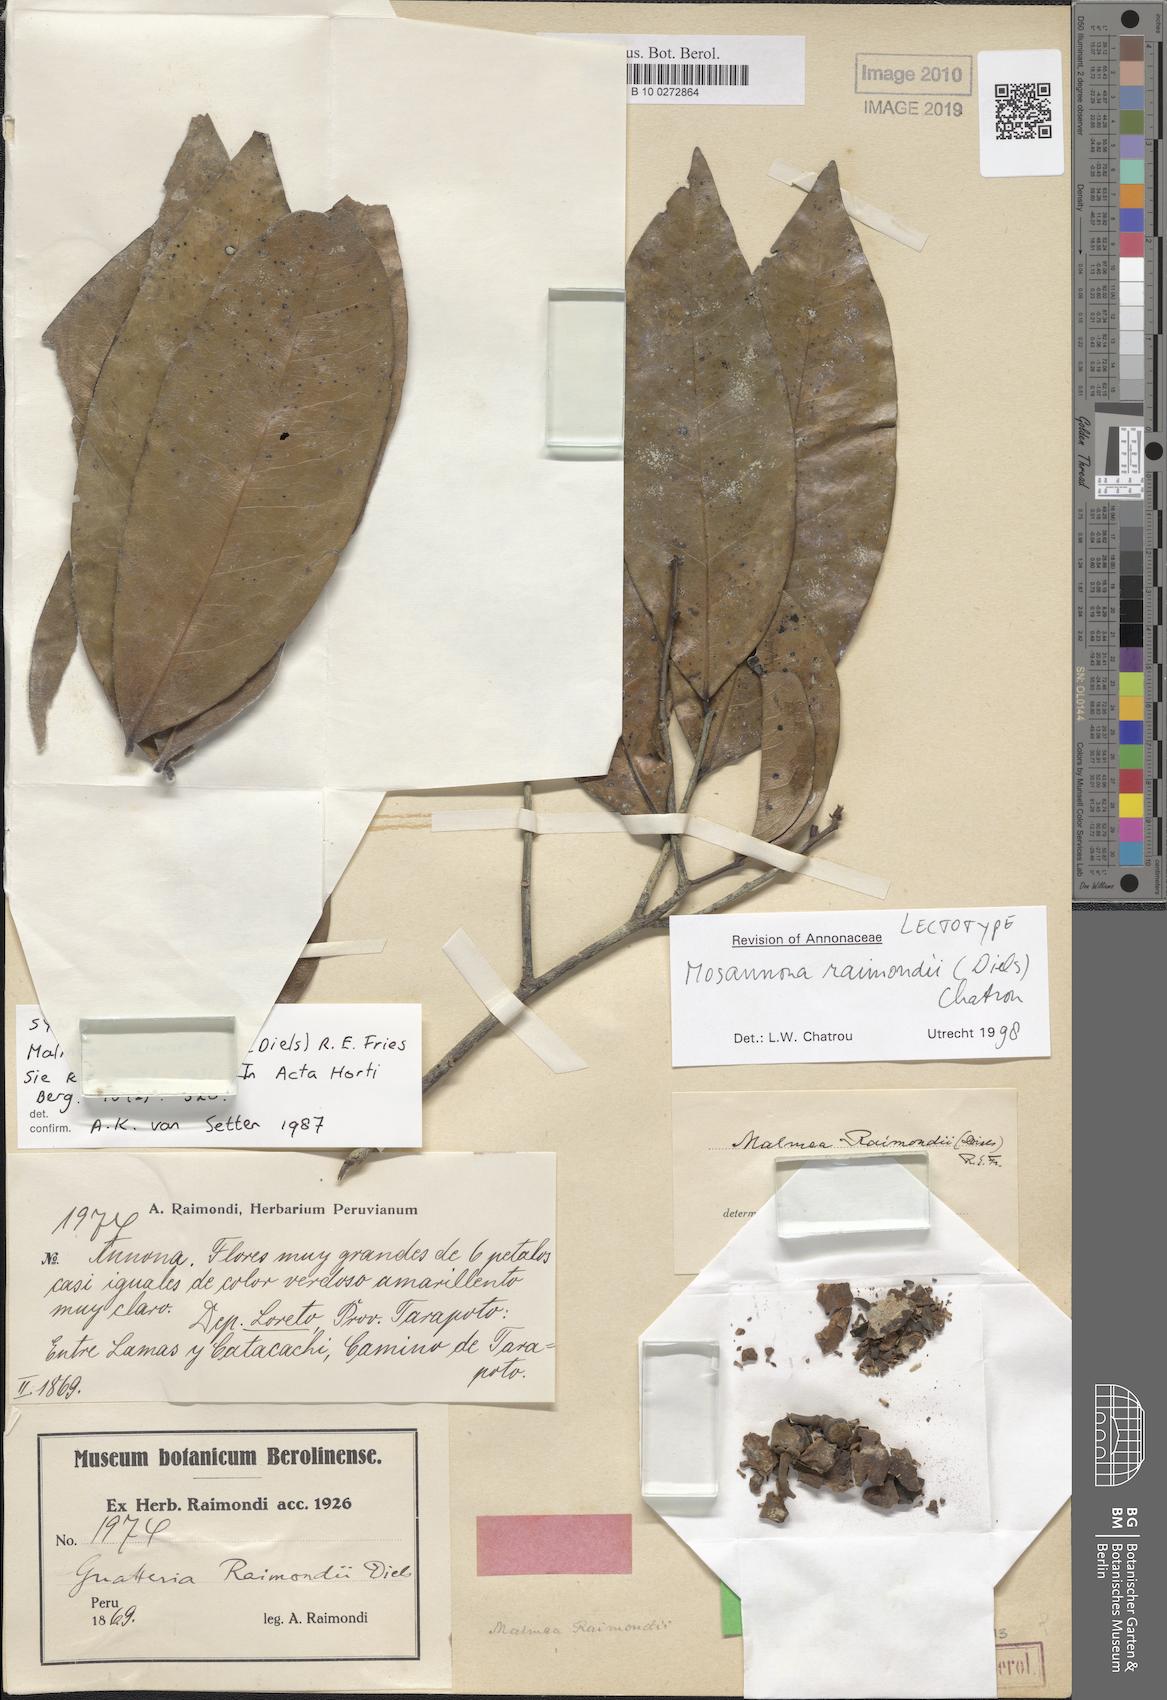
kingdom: Plantae
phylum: Tracheophyta
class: Magnoliopsida
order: Magnoliales
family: Annonaceae
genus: Mosannona
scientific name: Mosannona raimondii
